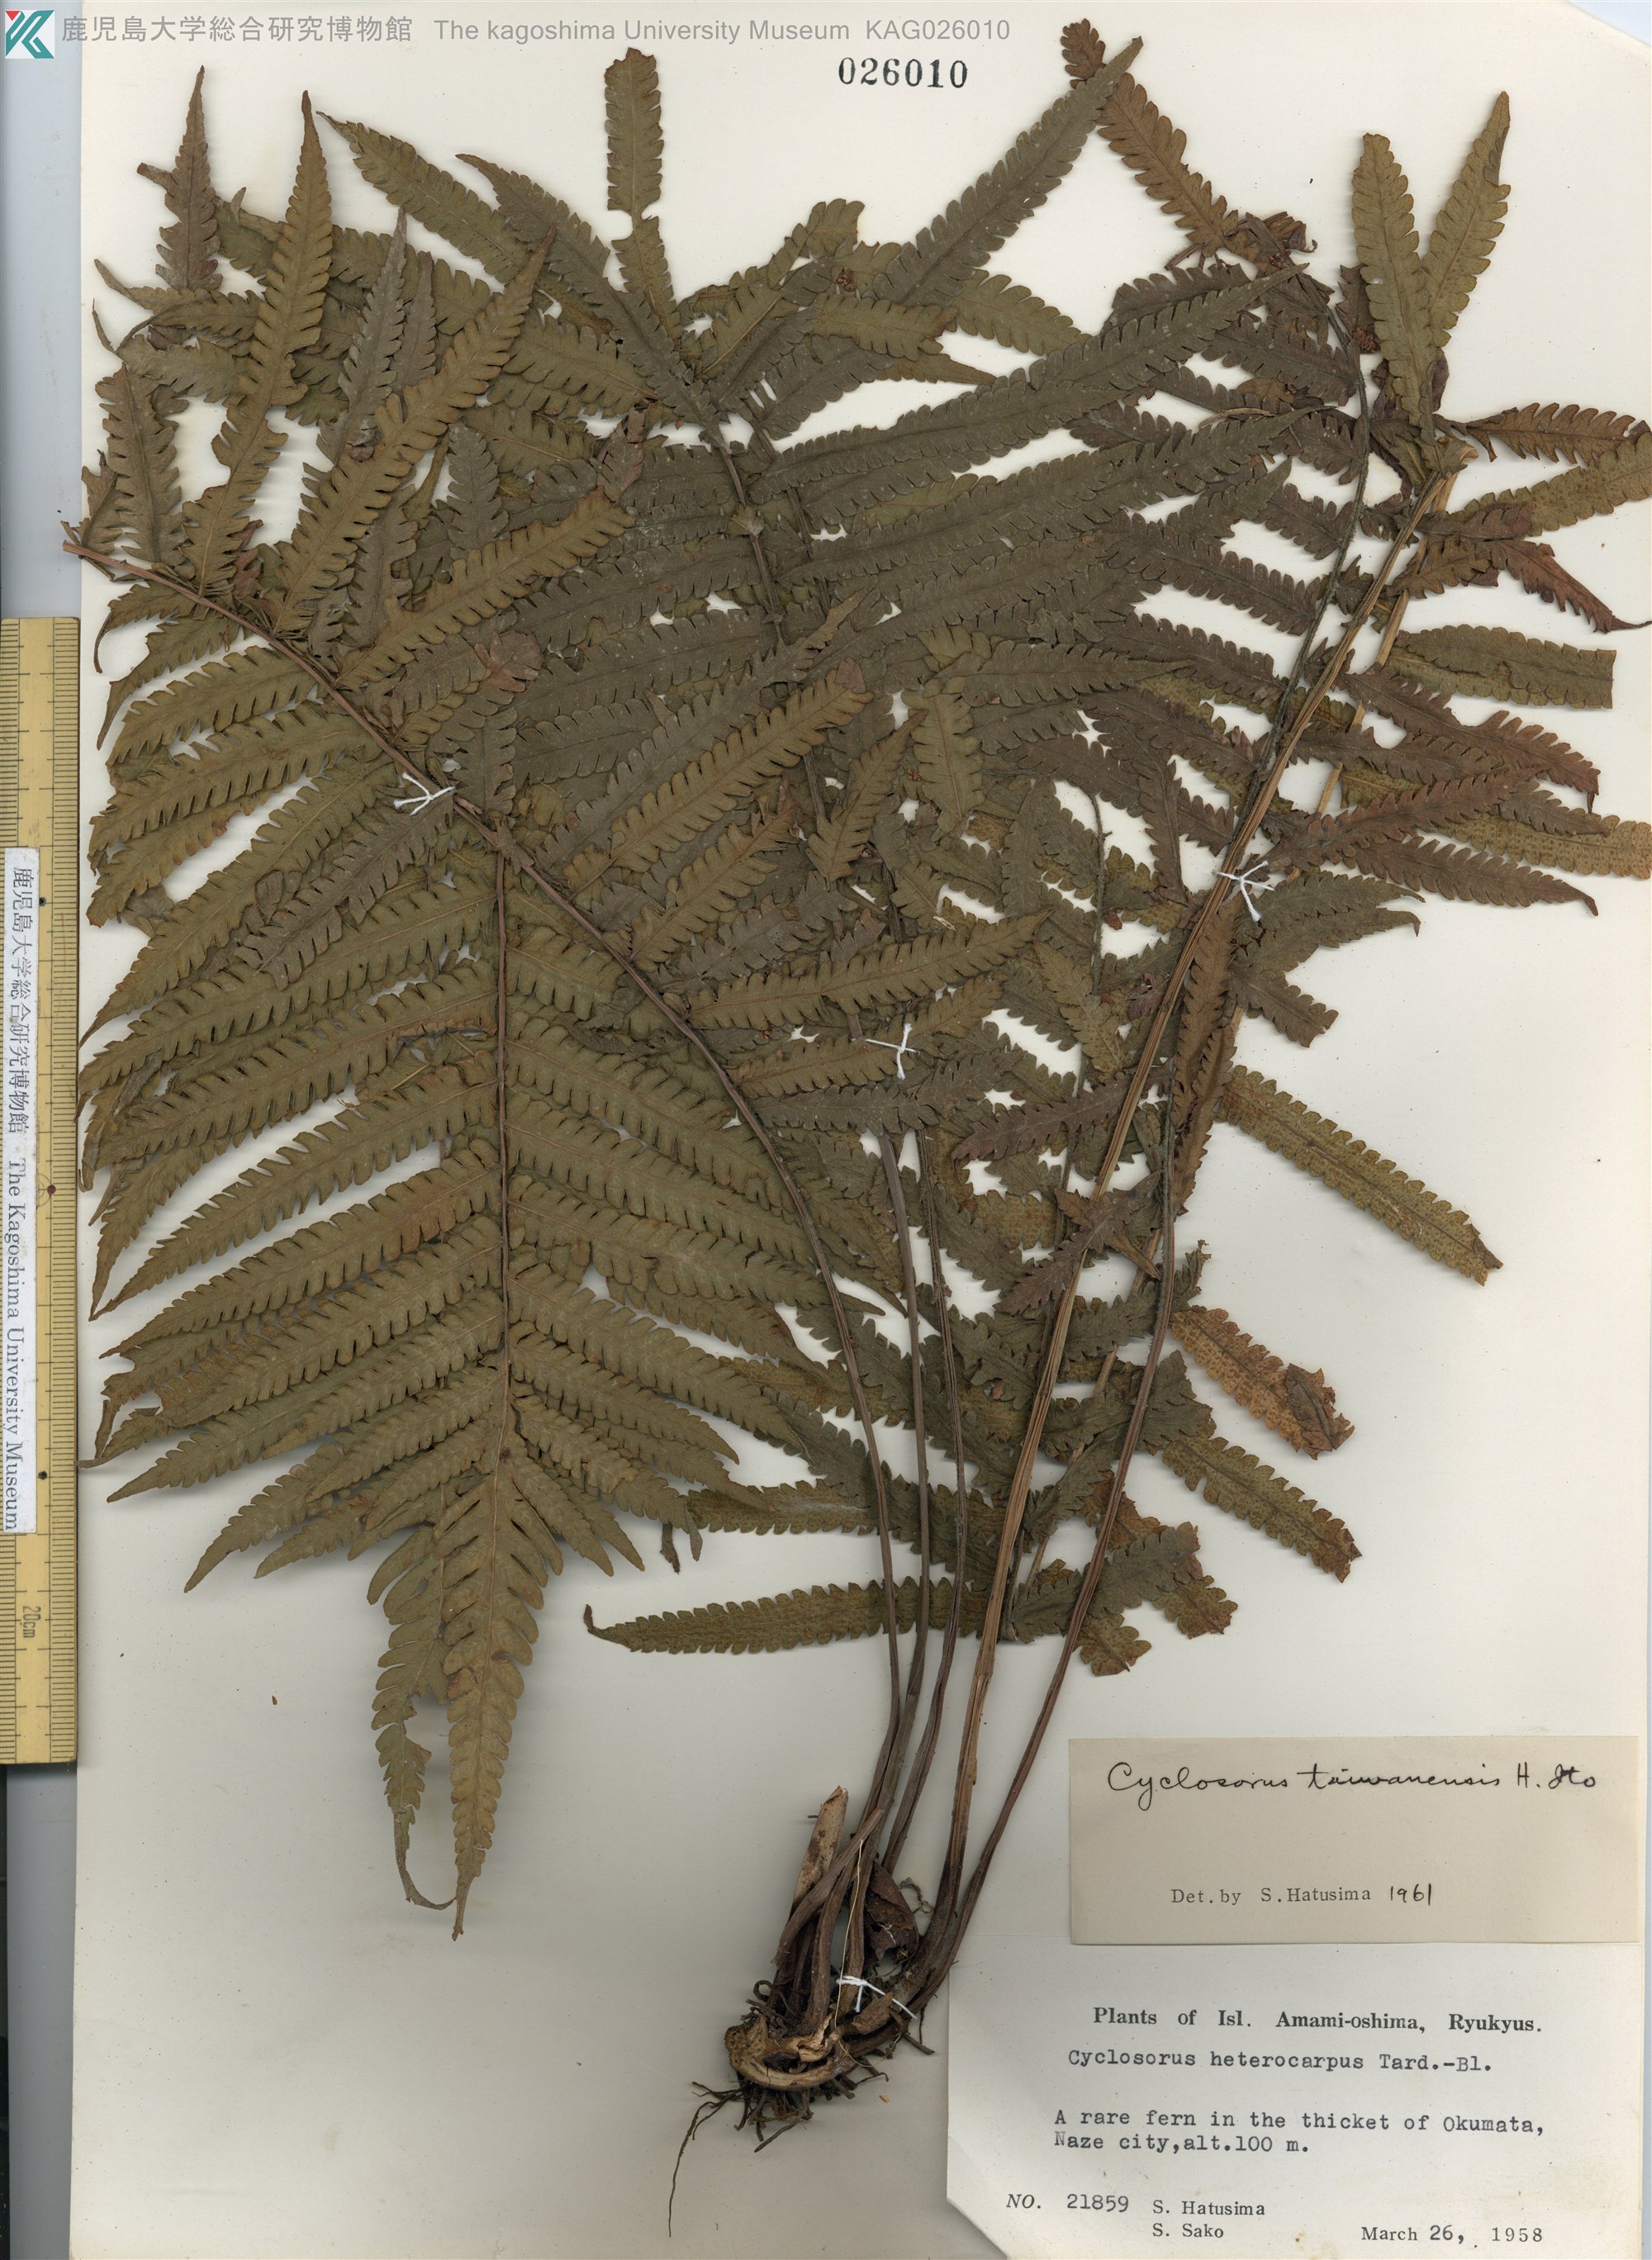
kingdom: Plantae
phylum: Tracheophyta
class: Polypodiopsida
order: Polypodiales
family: Thelypteridaceae
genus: Sphaerostephanos
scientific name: Sphaerostephanos taiwanensis
